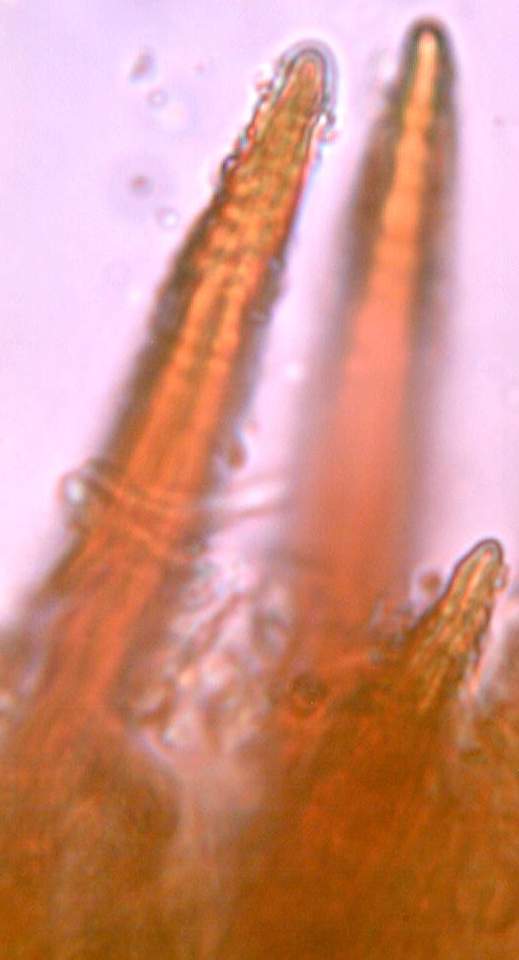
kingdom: Fungi
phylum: Basidiomycota
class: Agaricomycetes
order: Hymenochaetales
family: Hymenochaetaceae
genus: Hydnoporia
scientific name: Hydnoporia tabacina
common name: tobaksbrun ruslædersvamp
